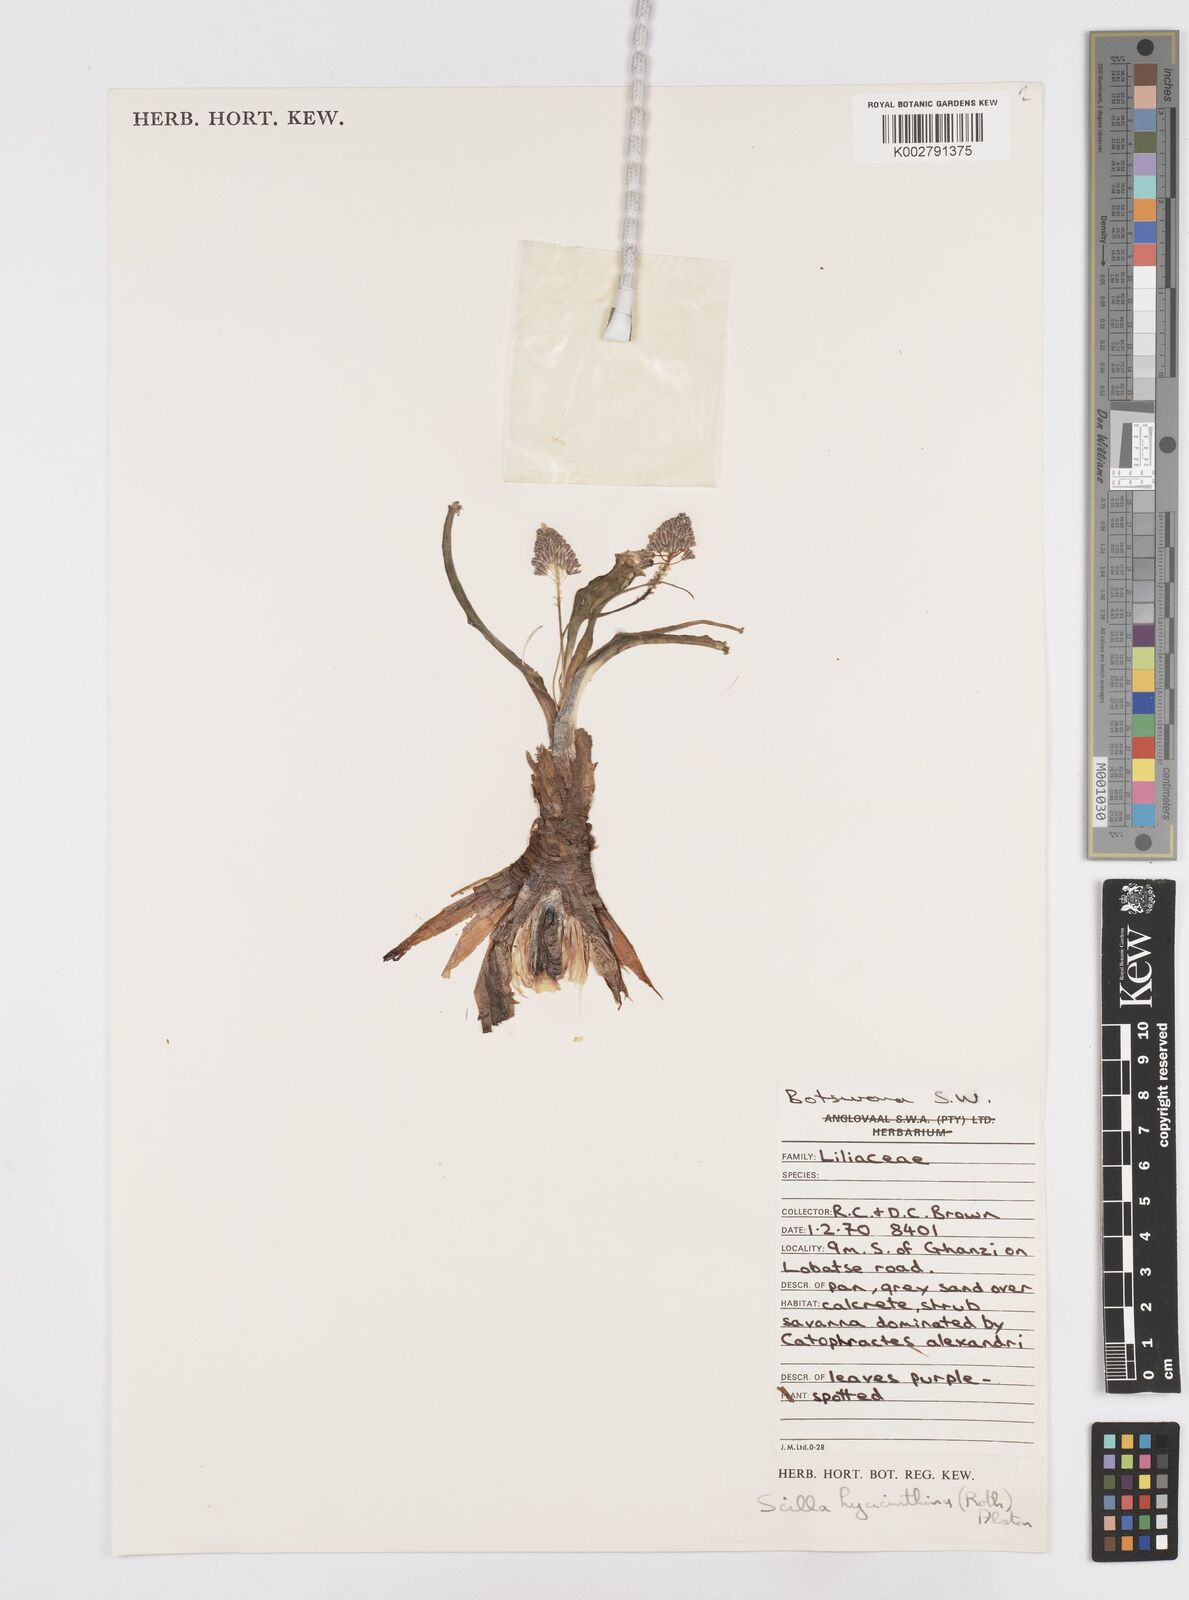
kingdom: Plantae
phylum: Tracheophyta
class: Liliopsida
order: Asparagales
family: Asparagaceae
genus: Ledebouria
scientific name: Ledebouria revoluta
